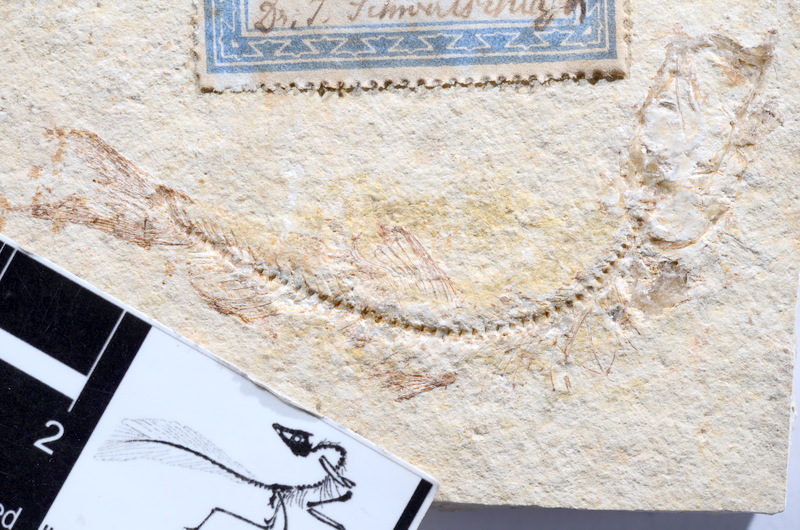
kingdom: Animalia
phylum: Chordata
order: Salmoniformes
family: Orthogonikleithridae
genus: Leptolepides
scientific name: Leptolepides sprattiformis
